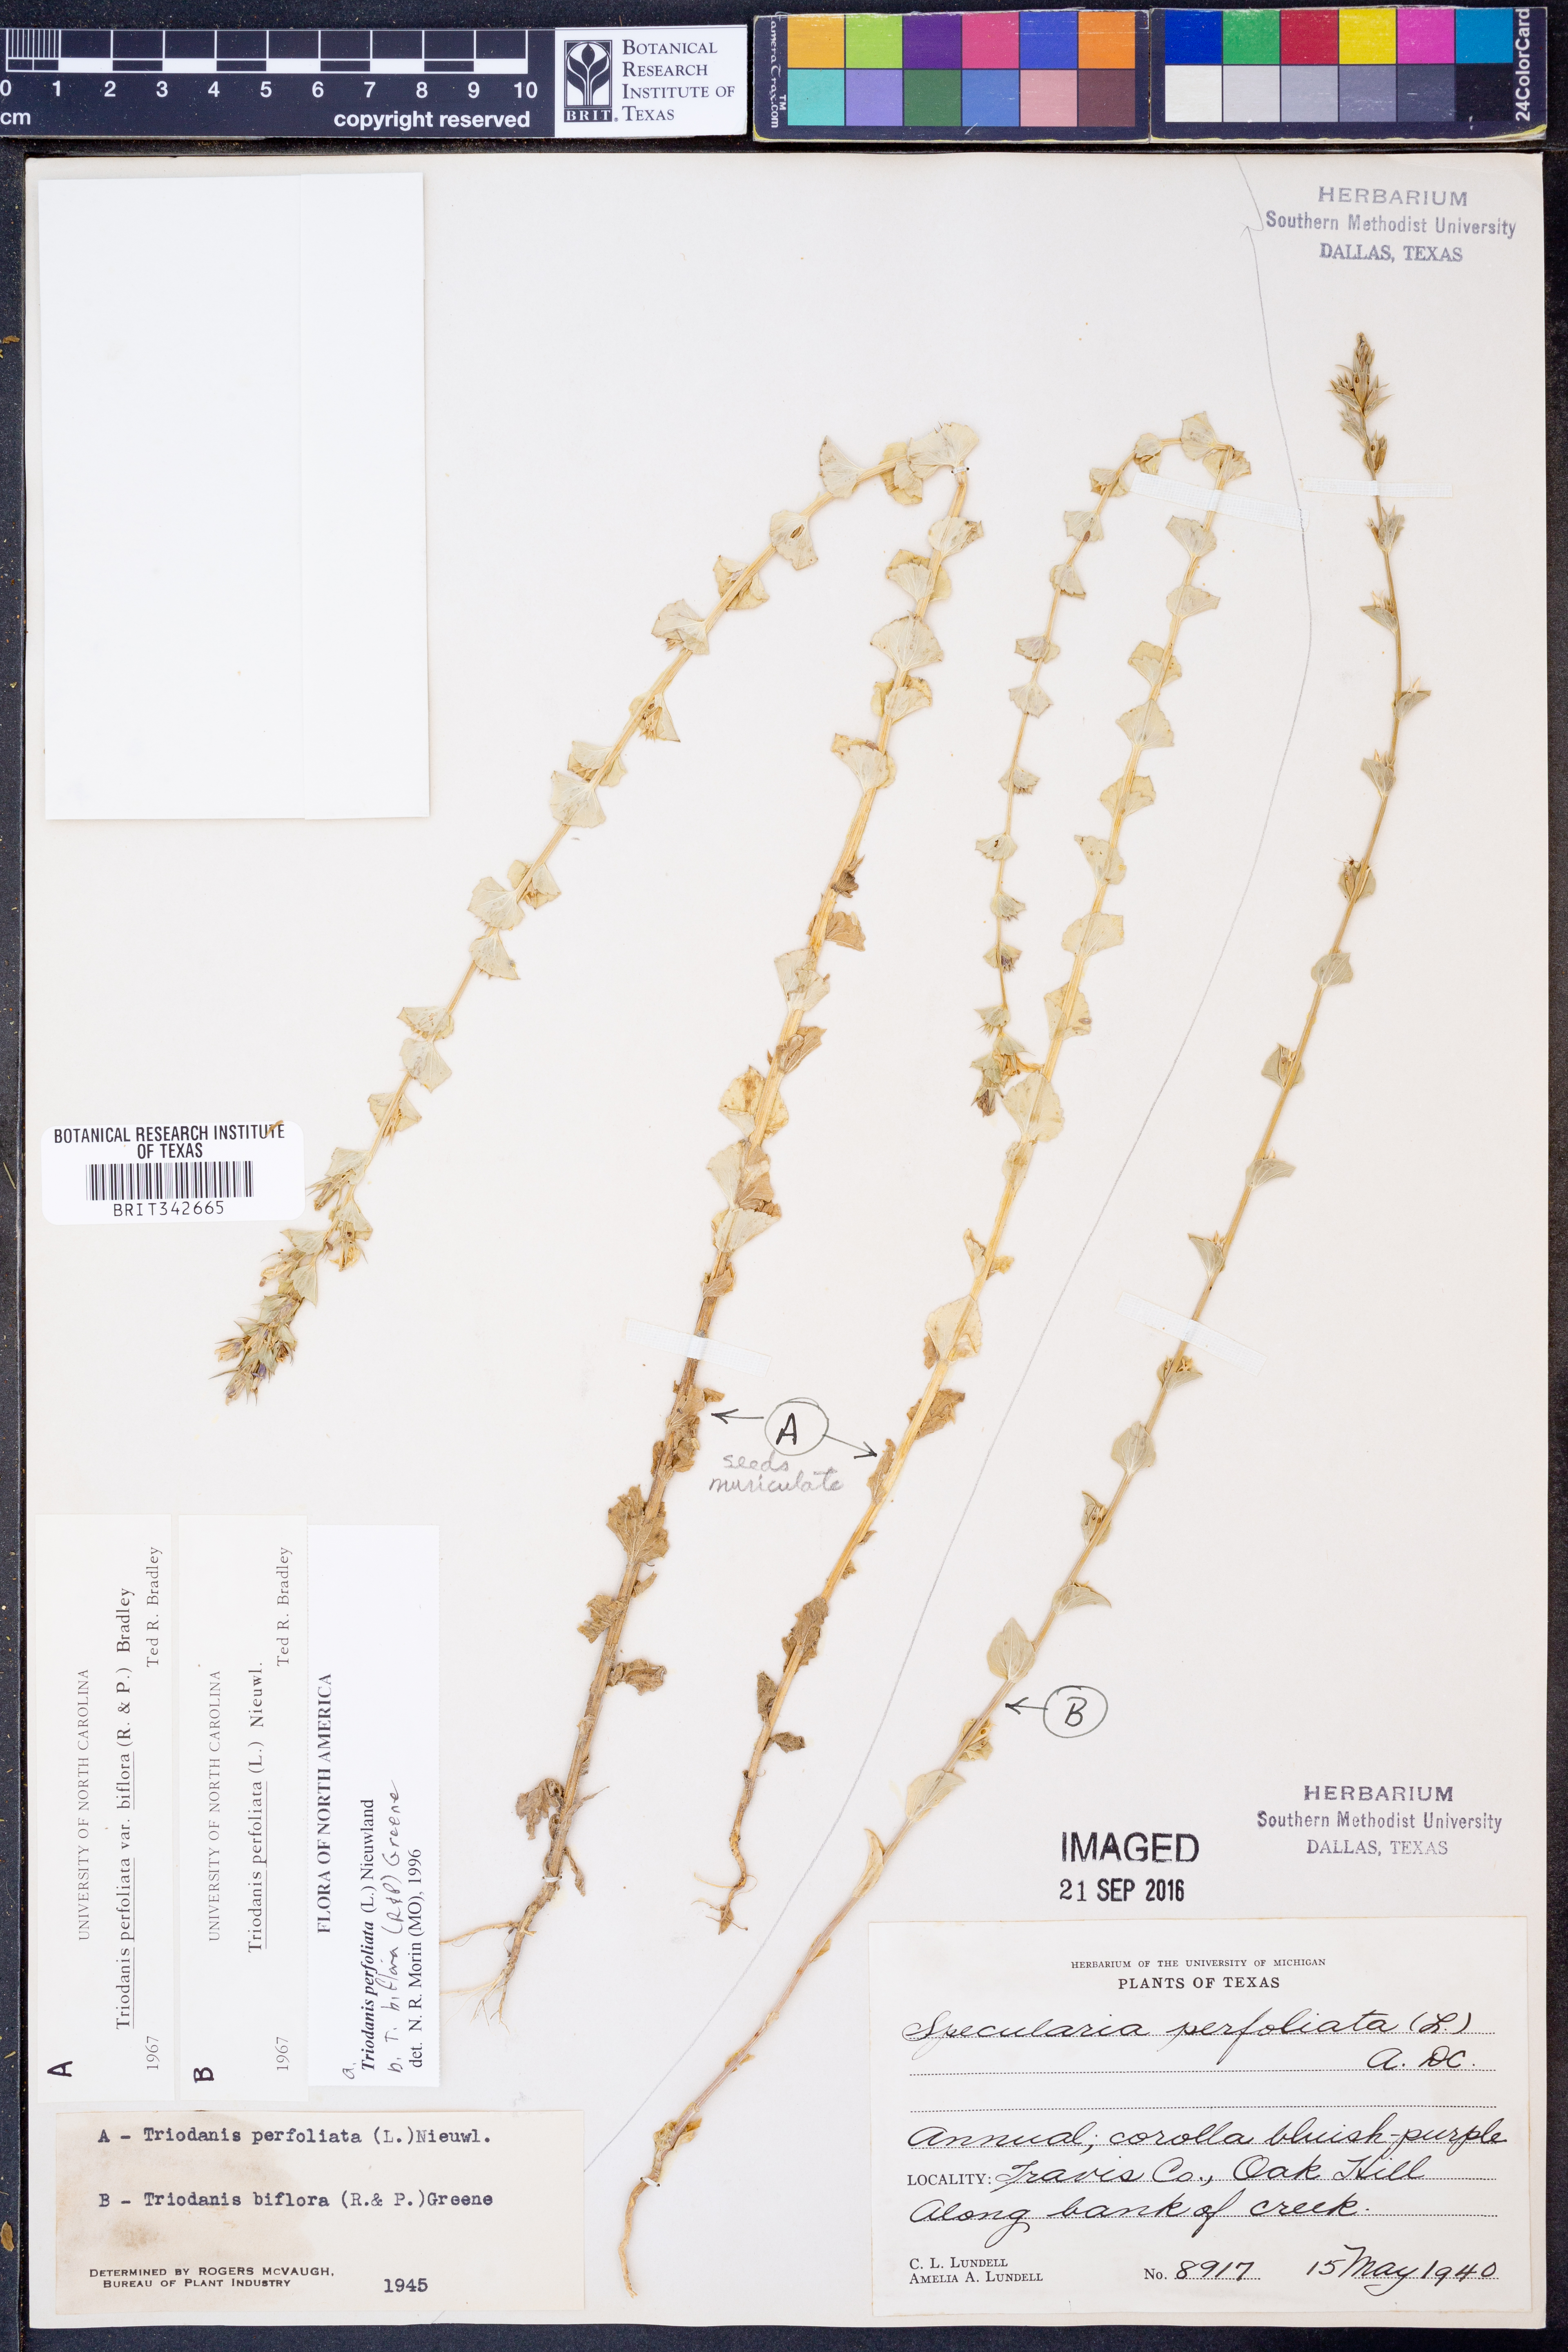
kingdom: Plantae
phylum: Tracheophyta
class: Magnoliopsida
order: Asterales
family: Campanulaceae
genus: Triodanis
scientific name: Triodanis perfoliata
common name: Clasping venus' looking-glass
